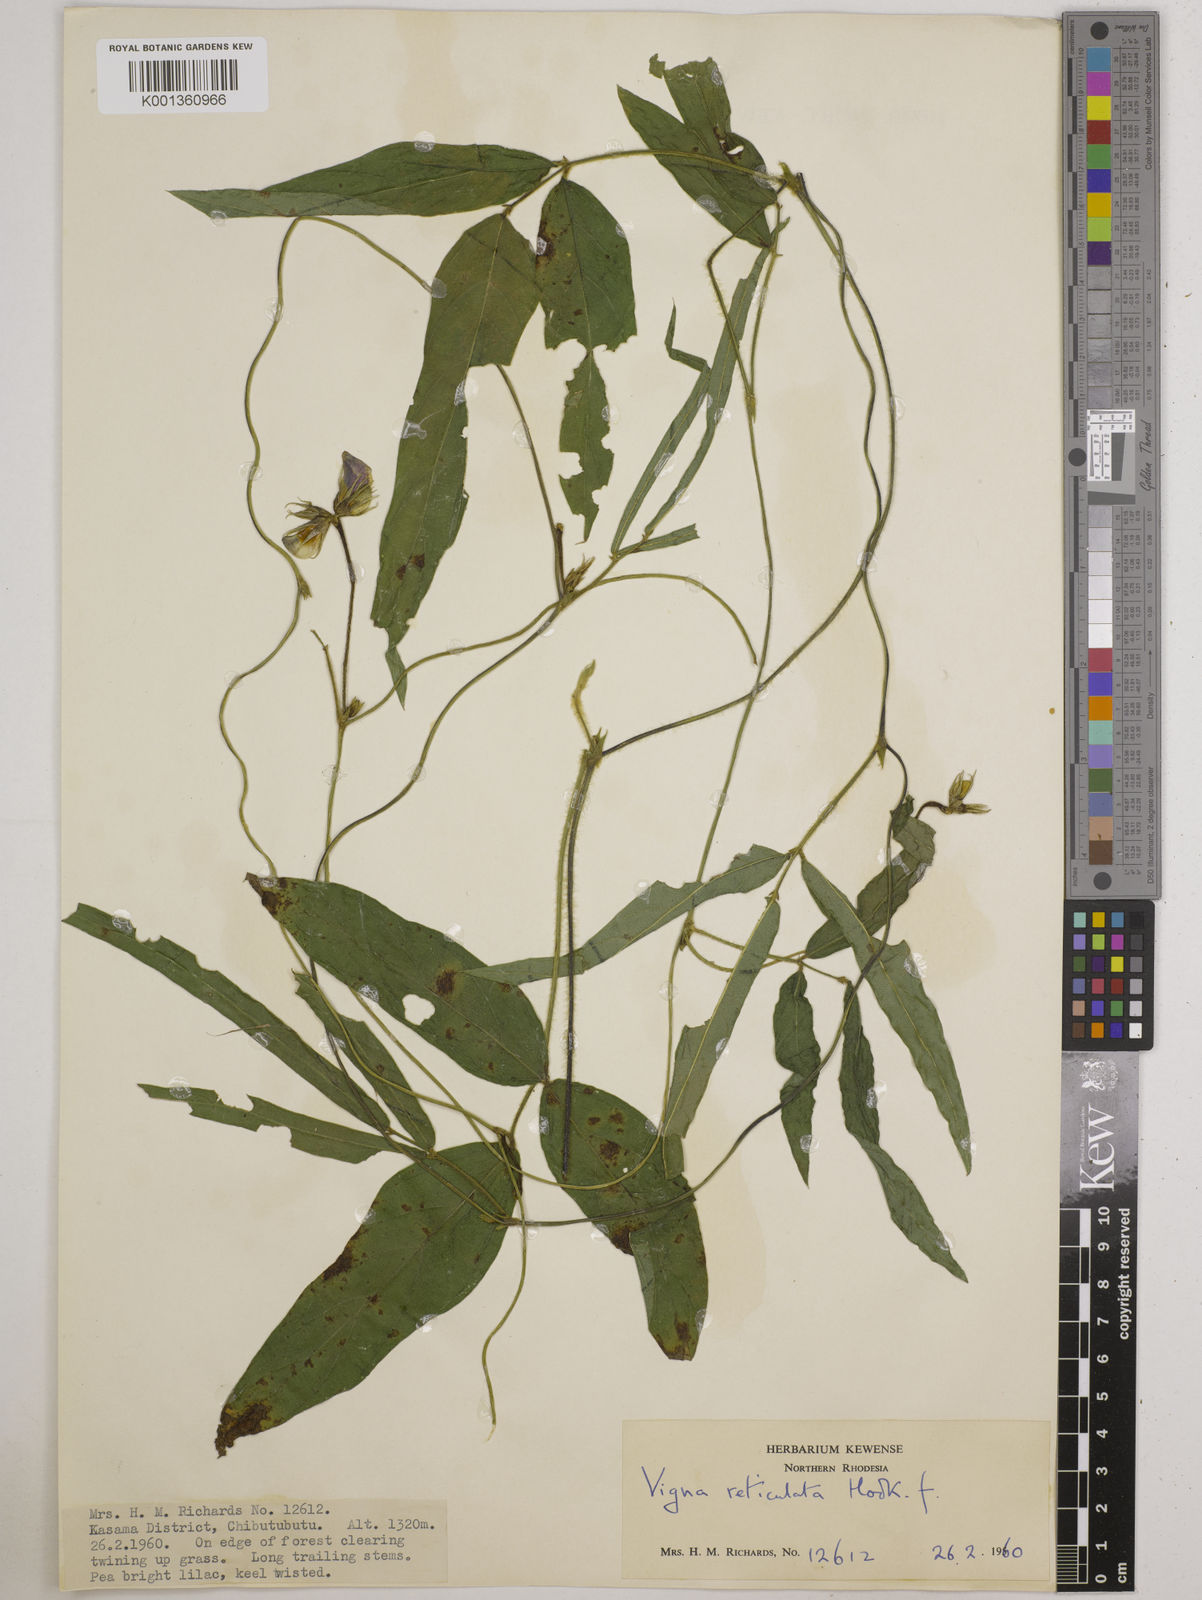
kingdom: Plantae
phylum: Tracheophyta
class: Magnoliopsida
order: Fabales
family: Fabaceae
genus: Vigna
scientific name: Vigna reticulata
